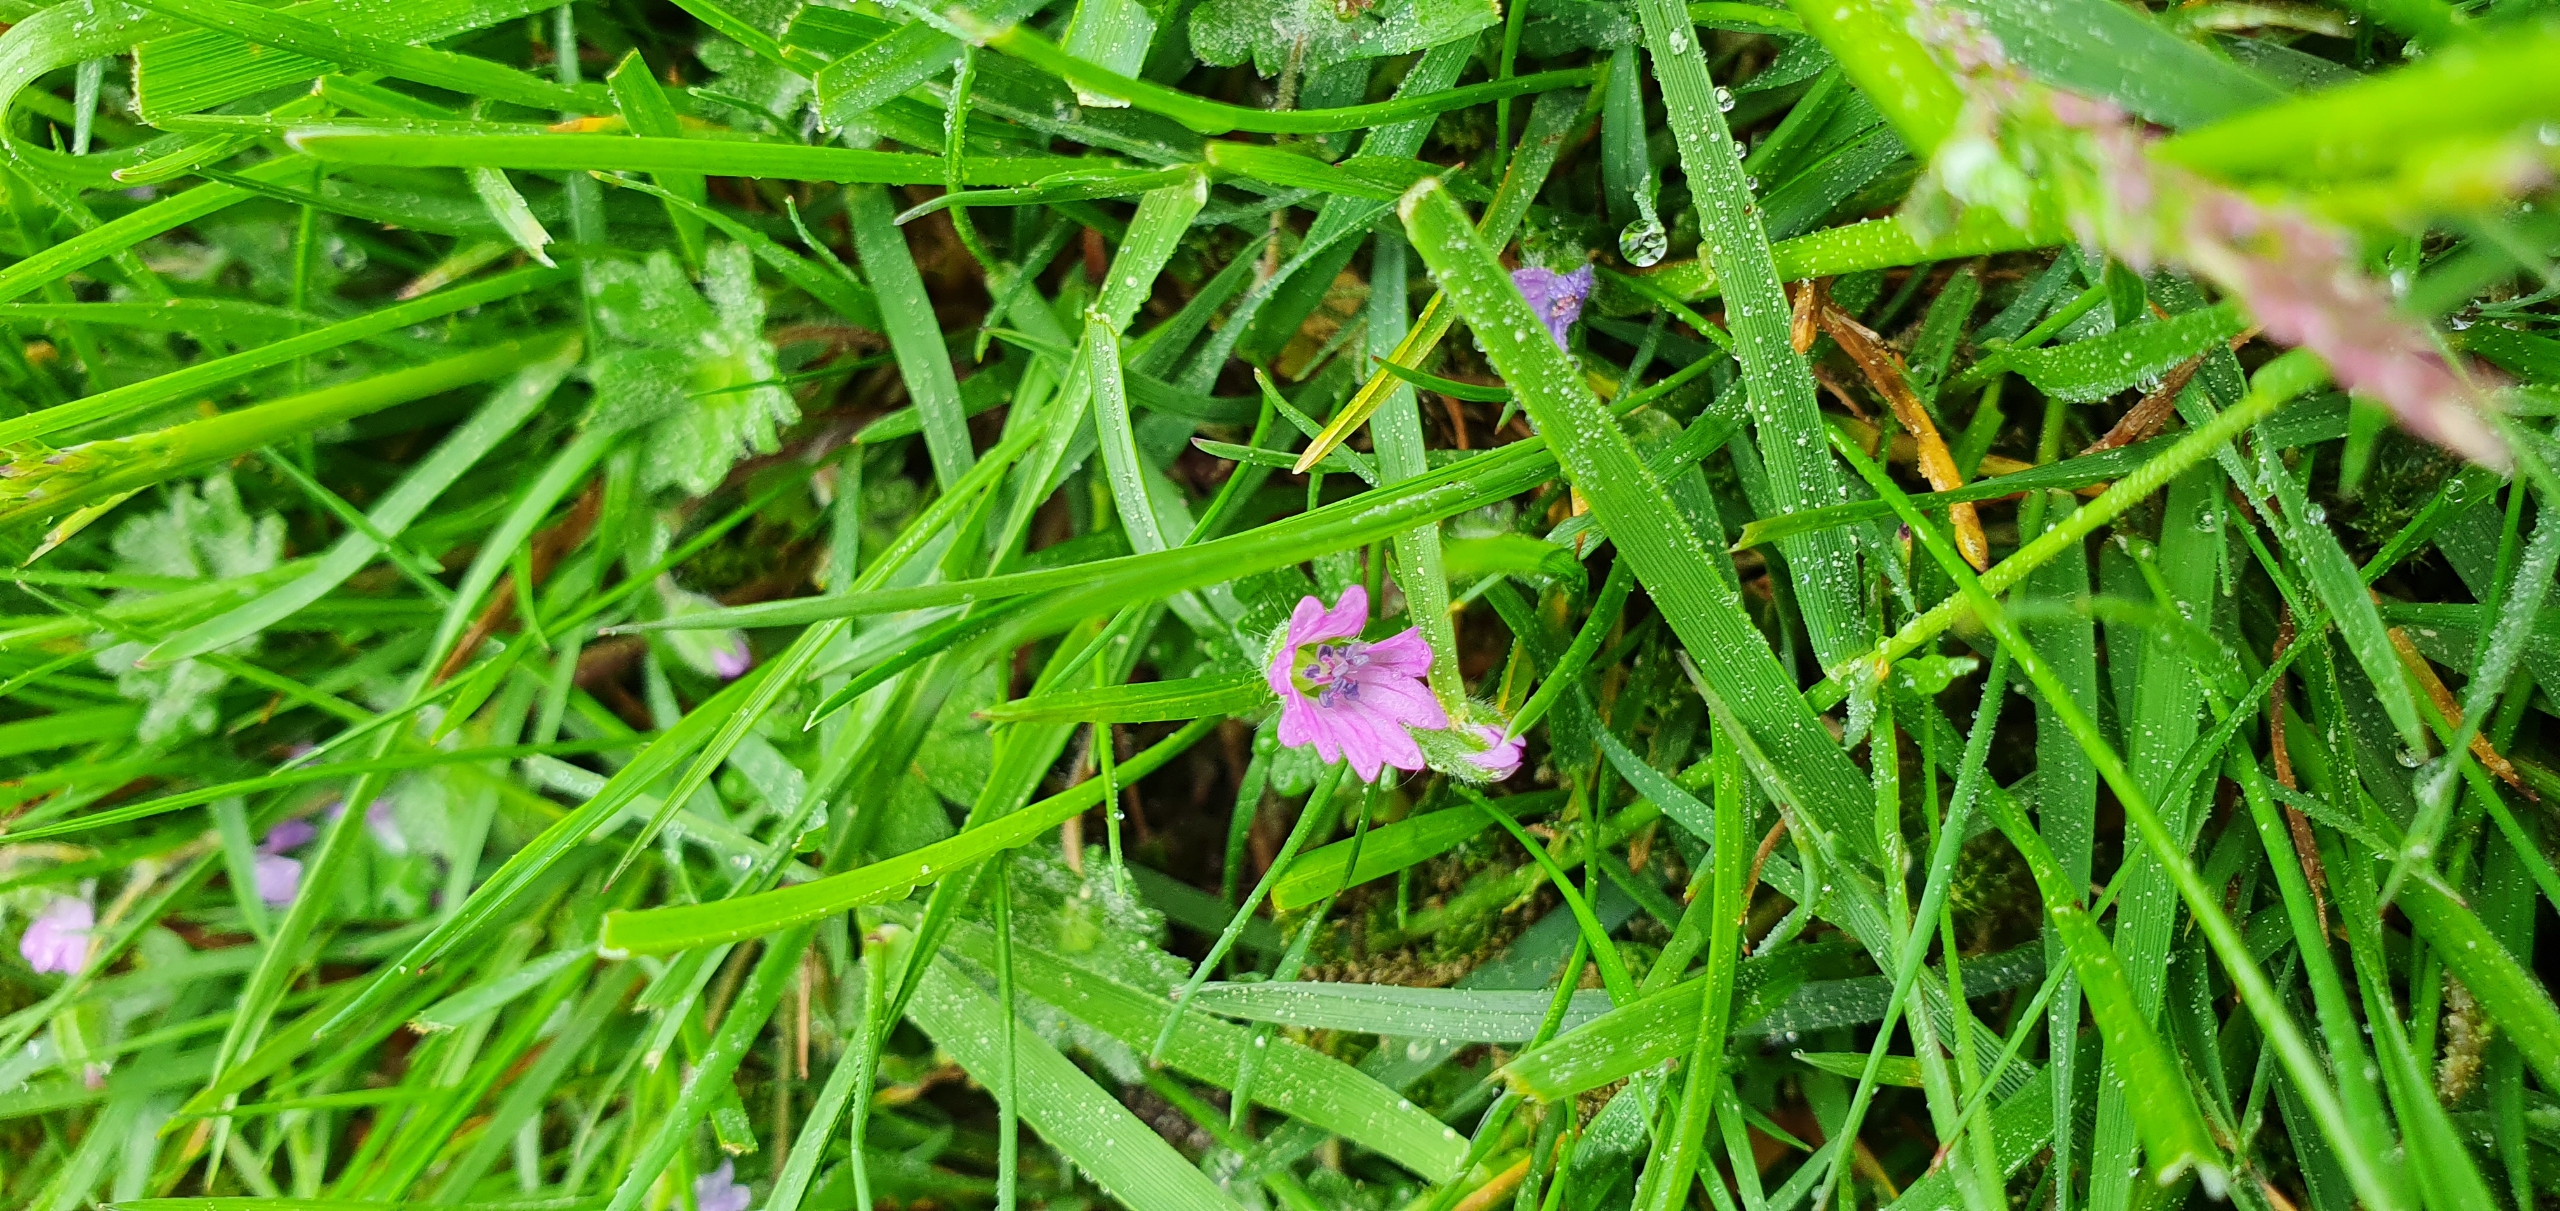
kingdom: Plantae
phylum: Tracheophyta
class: Magnoliopsida
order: Geraniales
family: Geraniaceae
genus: Geranium
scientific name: Geranium molle
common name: Blød storkenæb
